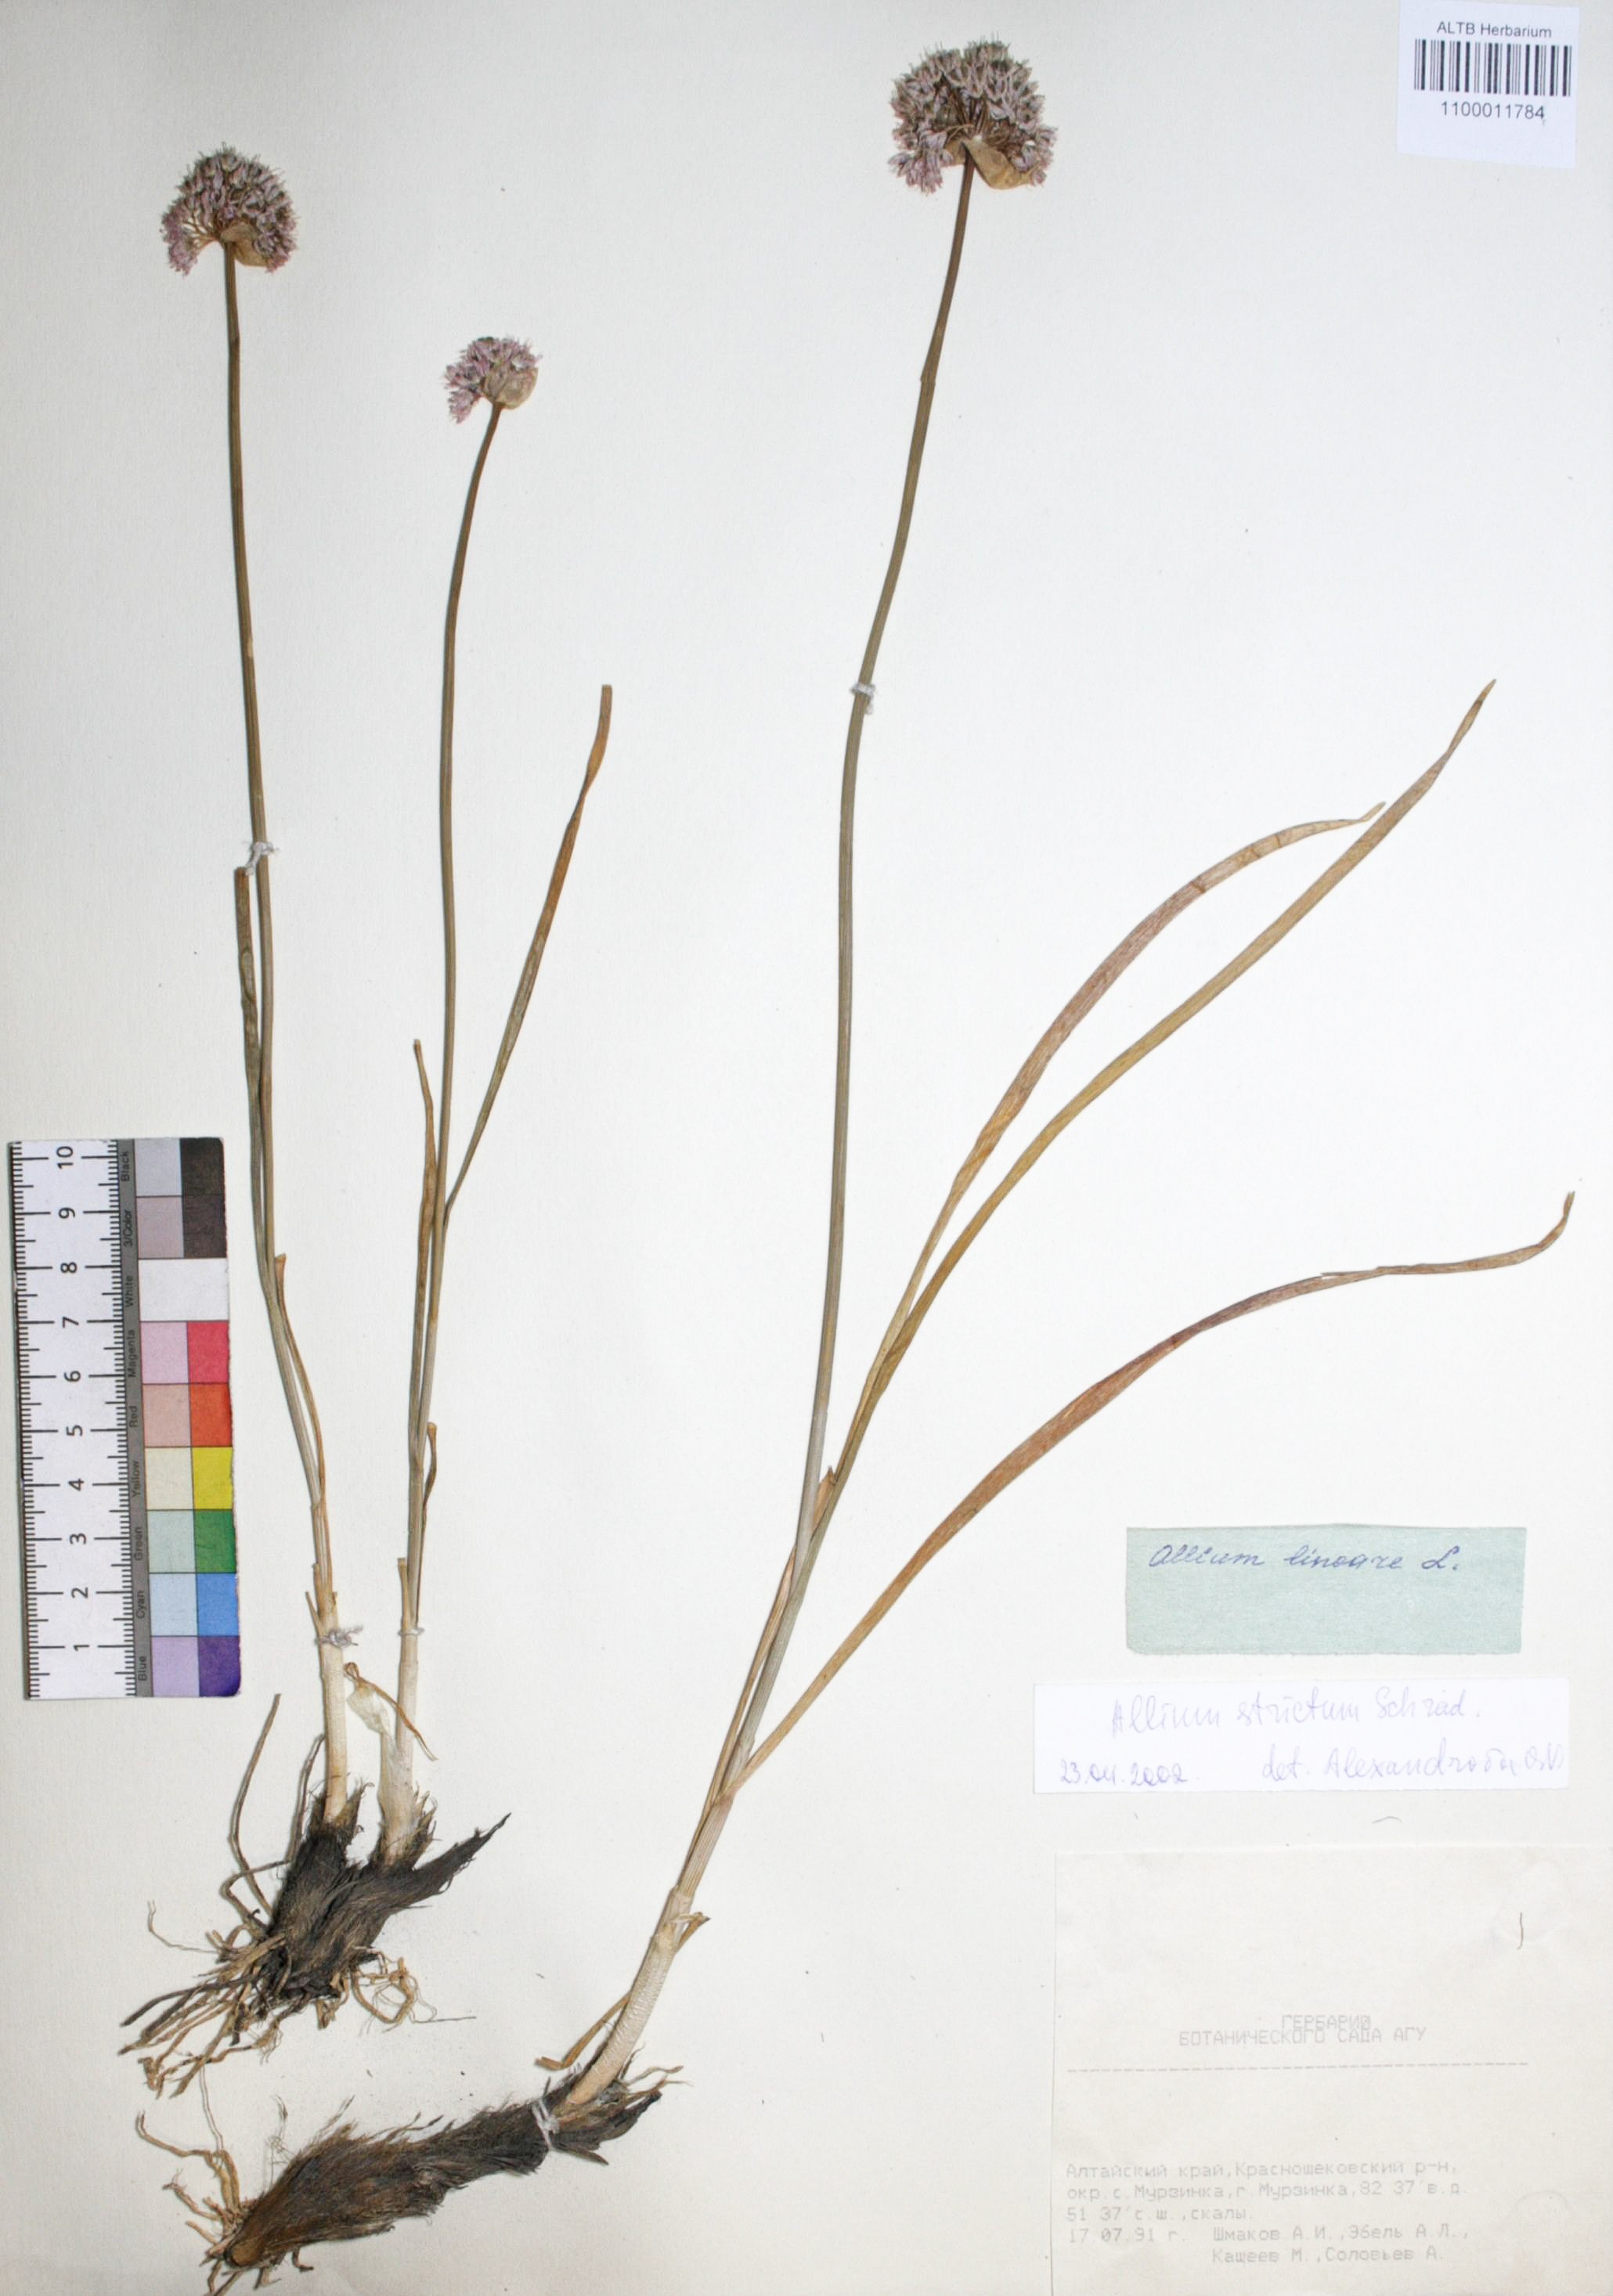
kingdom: Plantae
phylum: Tracheophyta
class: Liliopsida
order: Asparagales
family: Amaryllidaceae
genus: Allium
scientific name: Allium strictum
